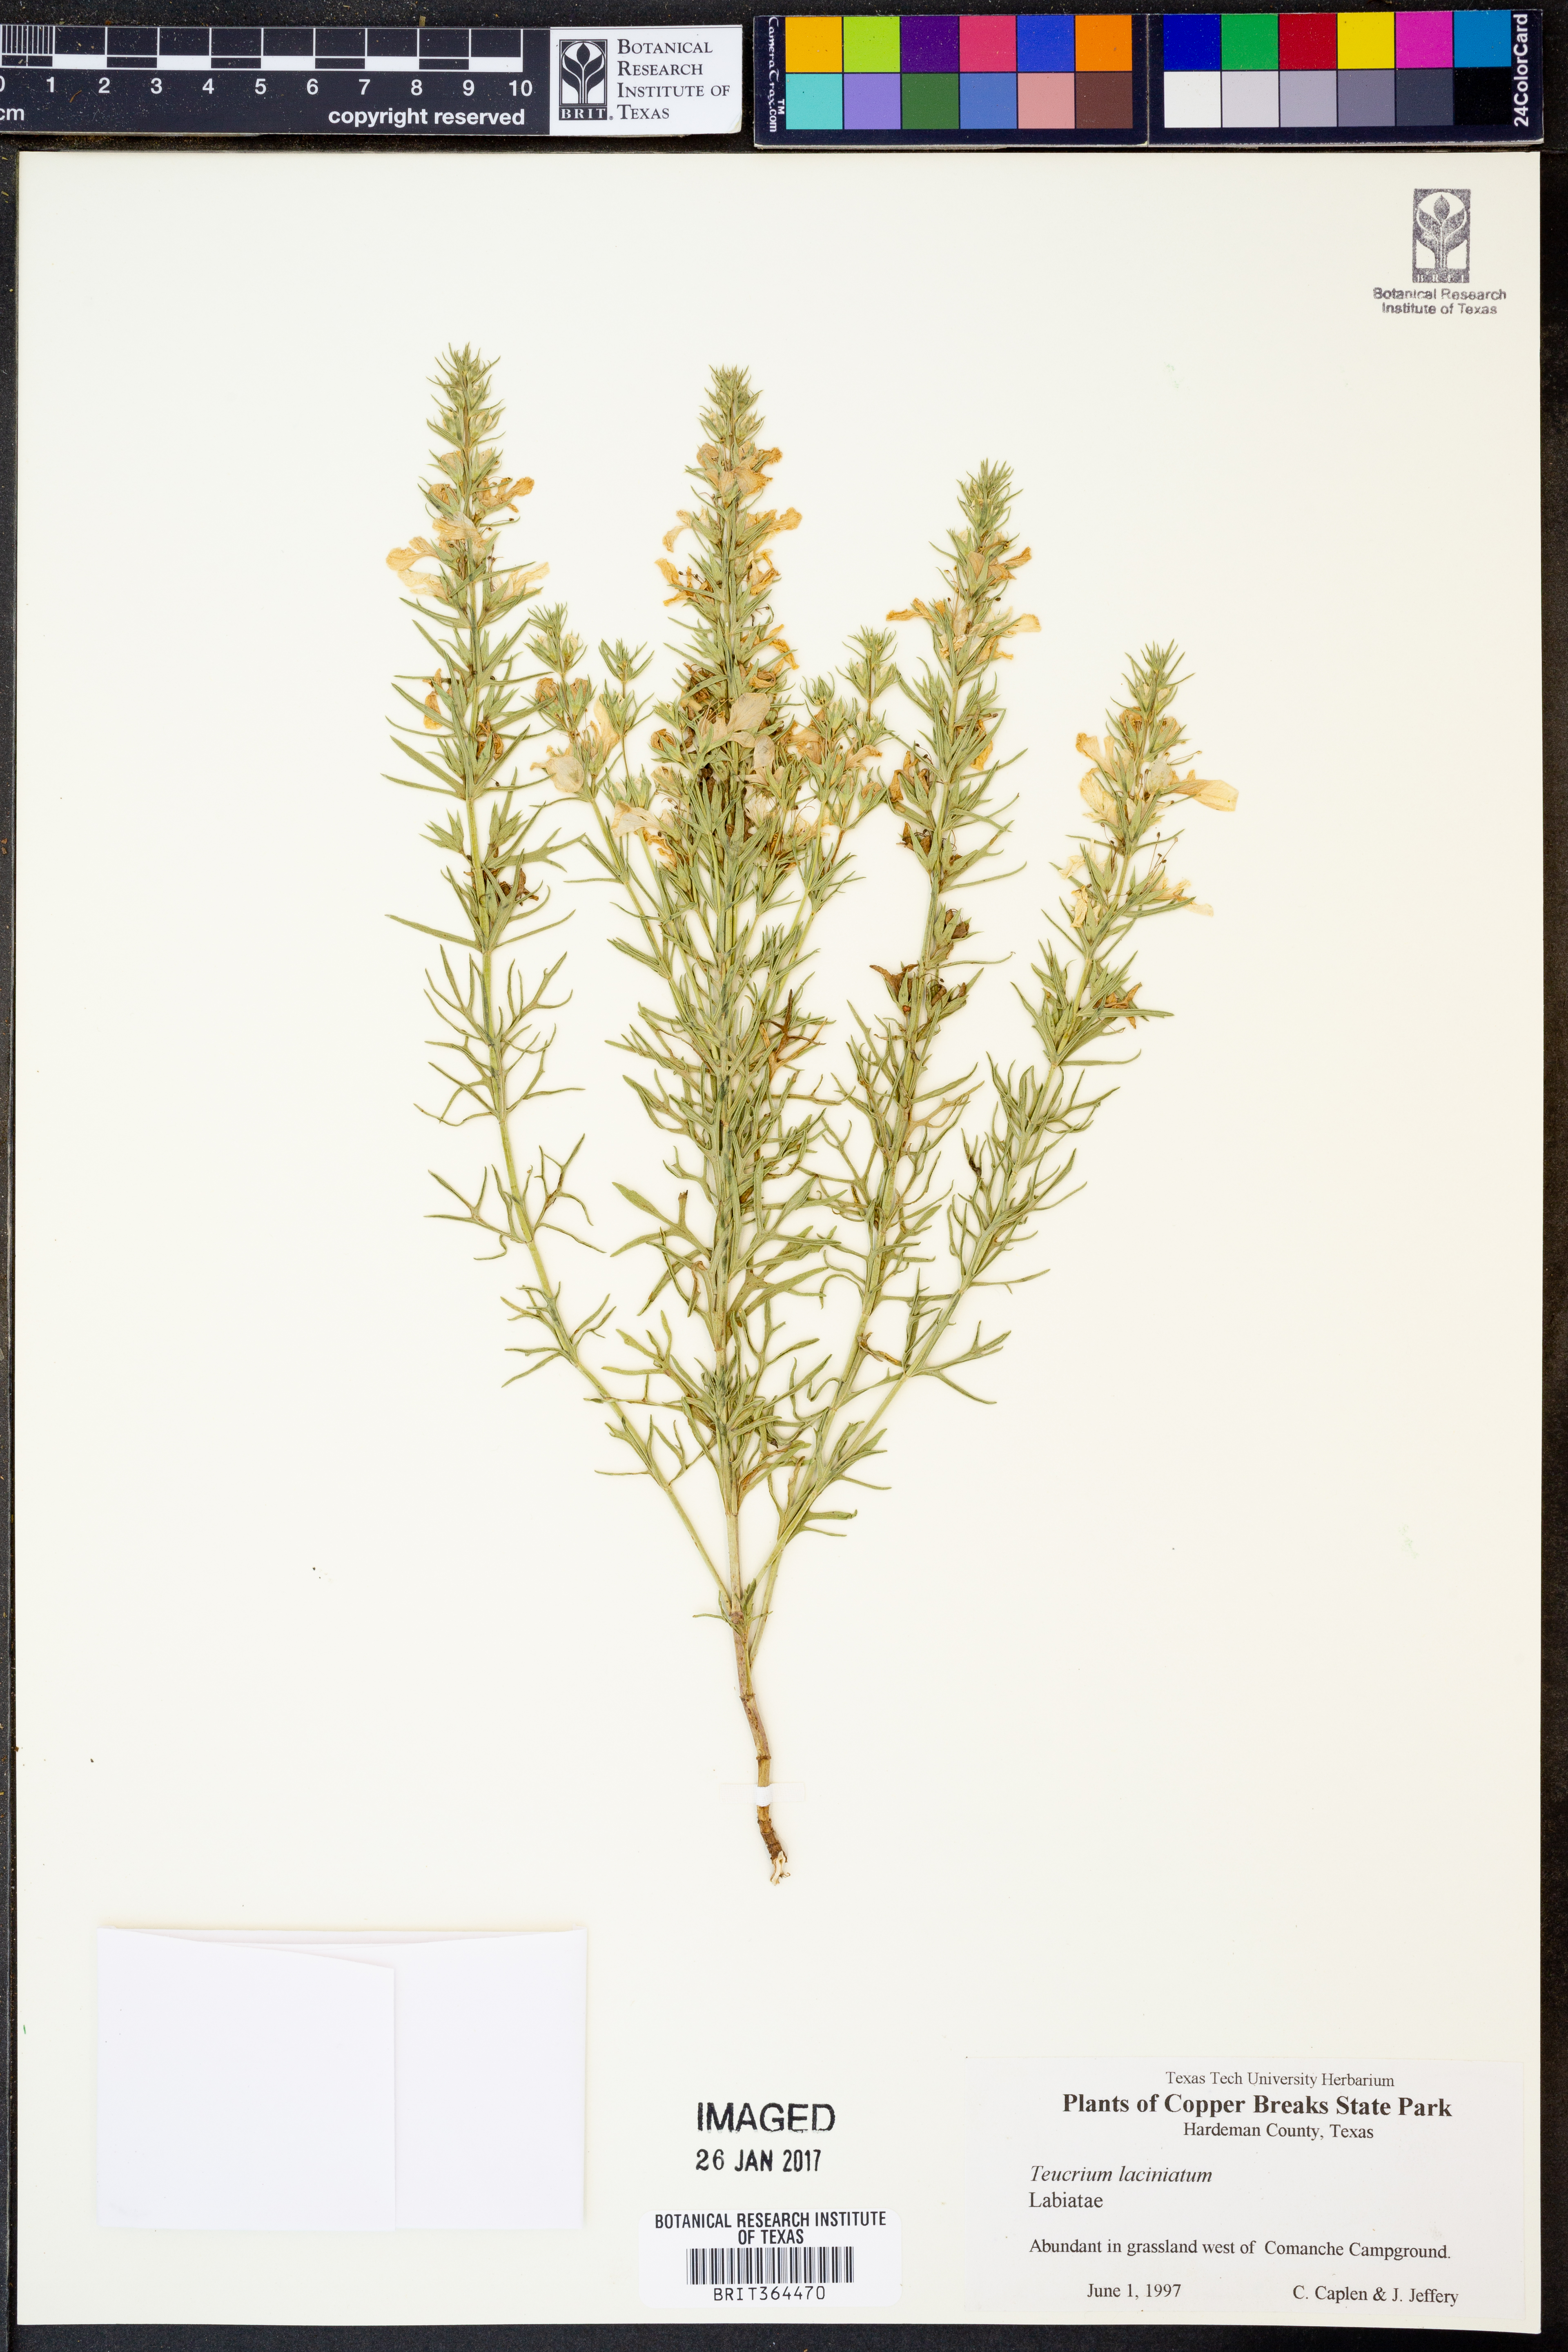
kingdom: Plantae
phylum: Tracheophyta
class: Magnoliopsida
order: Lamiales
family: Lamiaceae
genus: Teucrium
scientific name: Teucrium laciniatum
